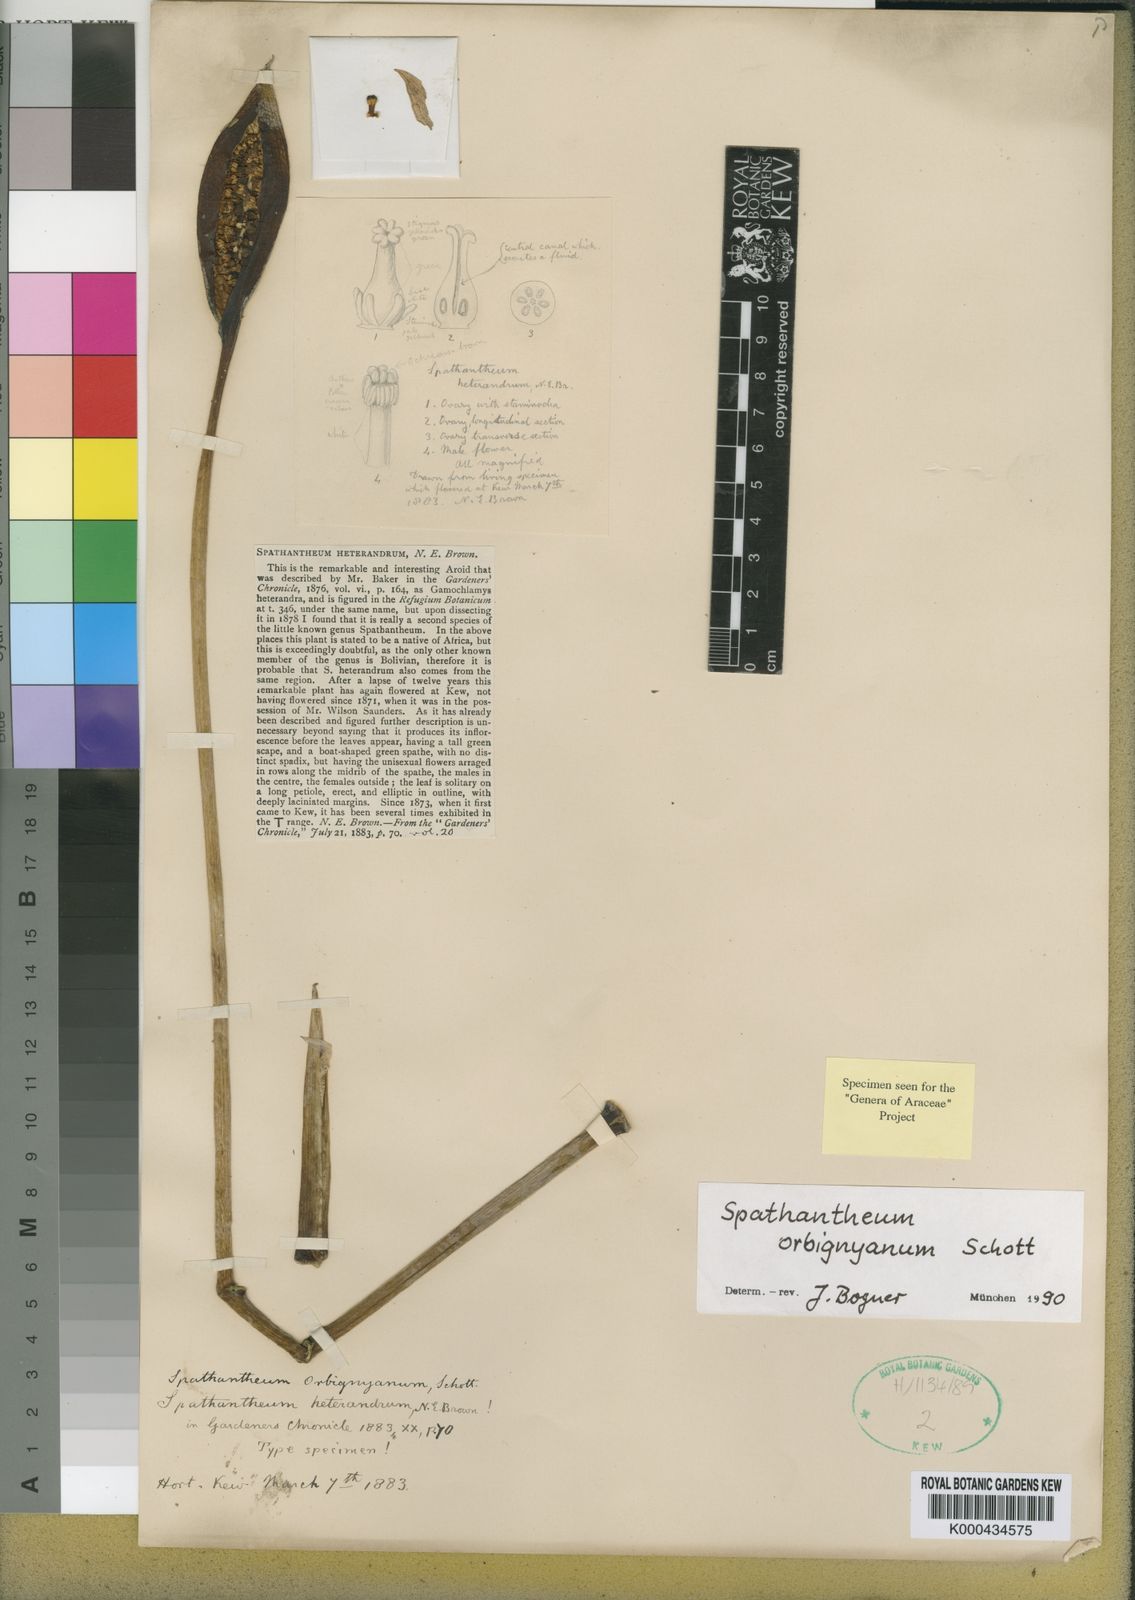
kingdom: Plantae
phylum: Tracheophyta
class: Liliopsida
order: Alismatales
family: Araceae
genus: Spathantheum
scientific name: Spathantheum orbignyanum
